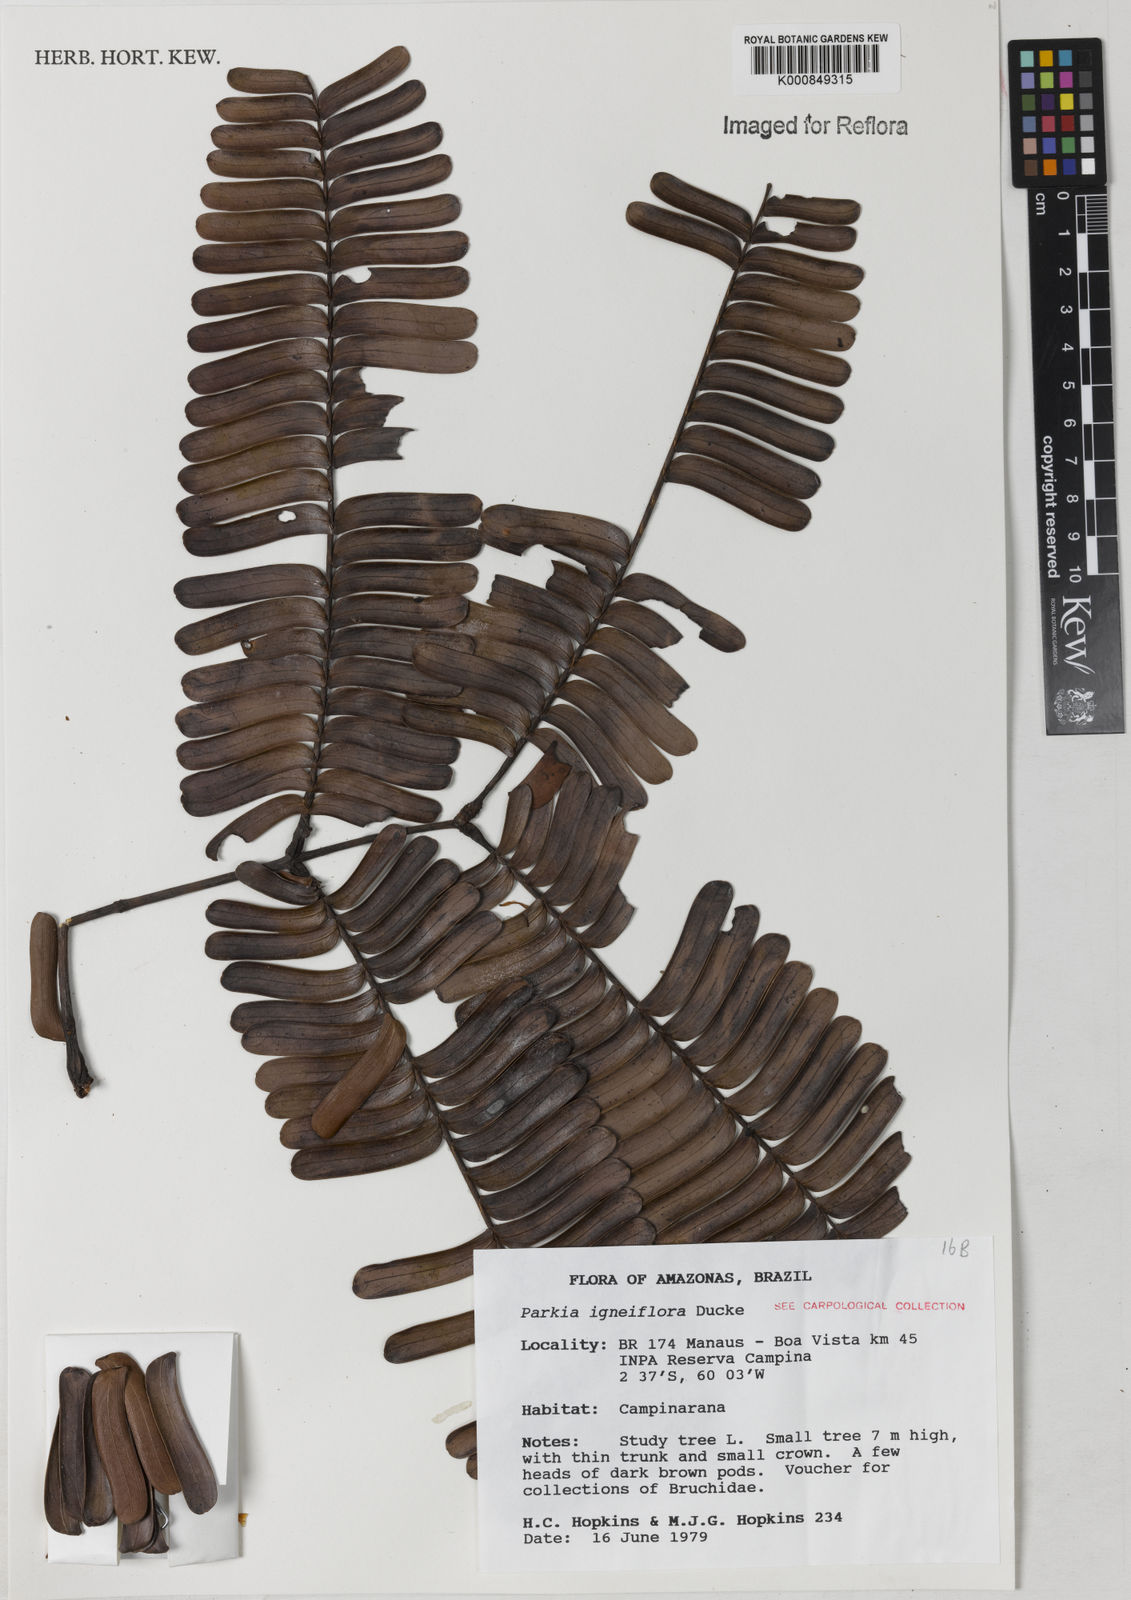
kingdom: Plantae
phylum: Tracheophyta
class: Magnoliopsida
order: Fabales
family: Fabaceae
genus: Parkia
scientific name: Parkia igneiflora
